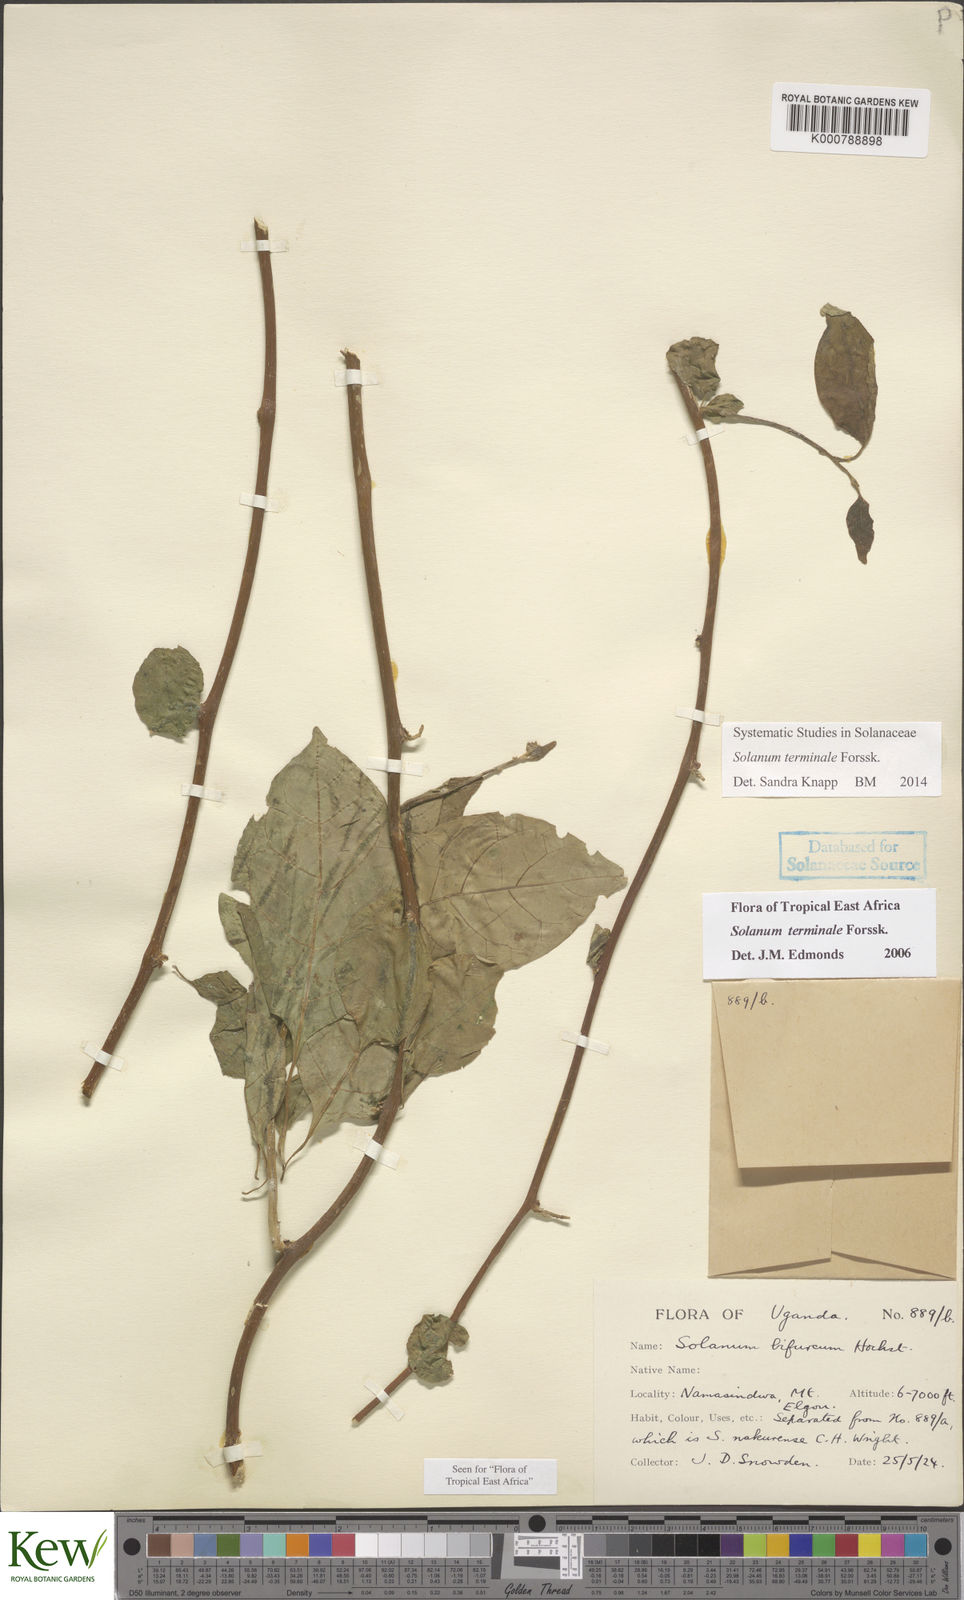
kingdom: Plantae
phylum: Tracheophyta
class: Magnoliopsida
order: Solanales
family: Solanaceae
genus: Solanum
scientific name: Solanum terminale
